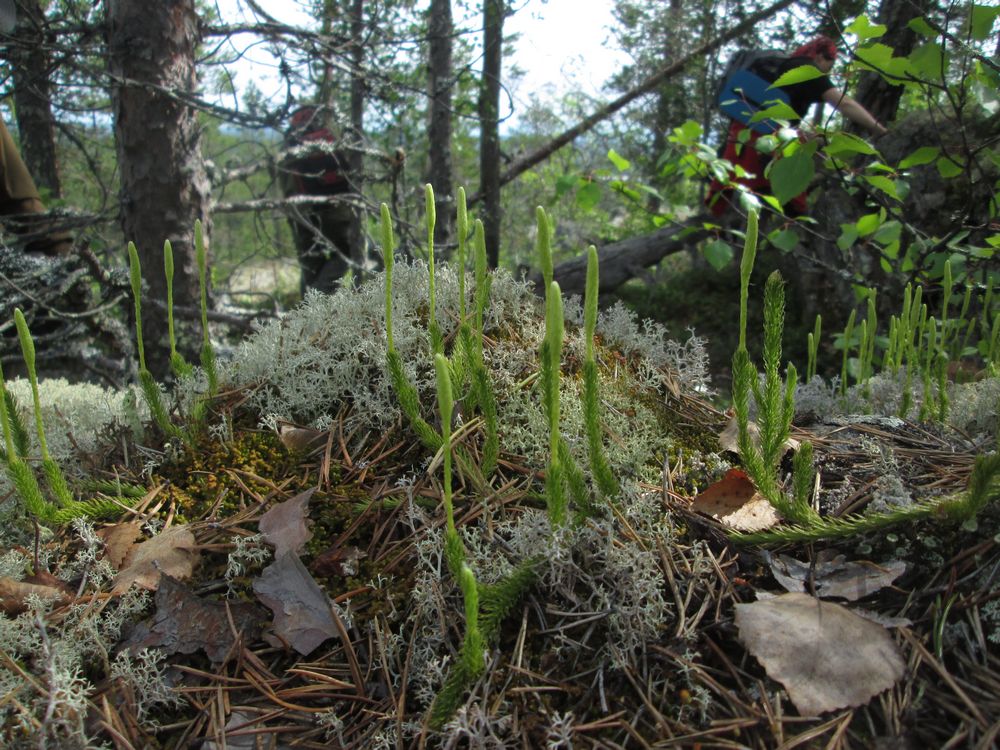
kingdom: Plantae
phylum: Tracheophyta
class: Lycopodiopsida
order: Lycopodiales
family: Lycopodiaceae
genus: Lycopodium
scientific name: Lycopodium clavatum
